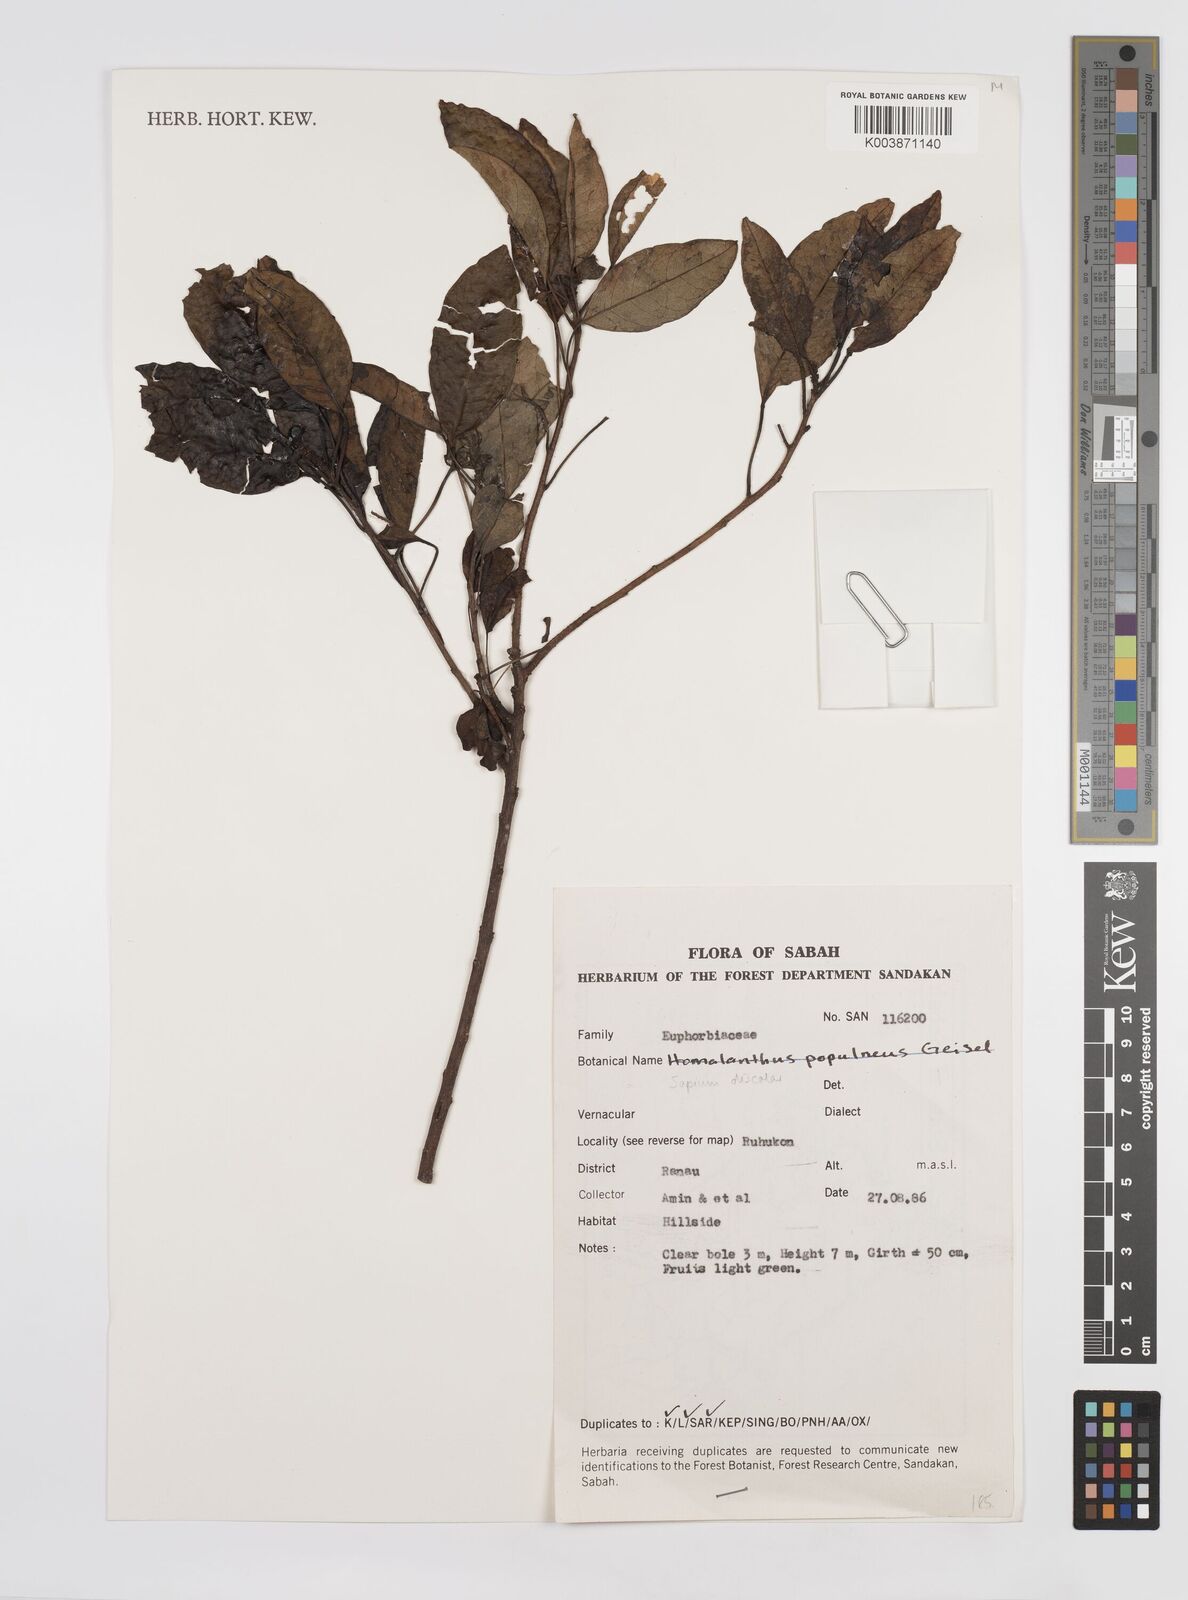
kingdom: Plantae
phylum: Tracheophyta
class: Magnoliopsida
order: Malpighiales
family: Euphorbiaceae
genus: Triadica
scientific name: Triadica cochinchinensis
